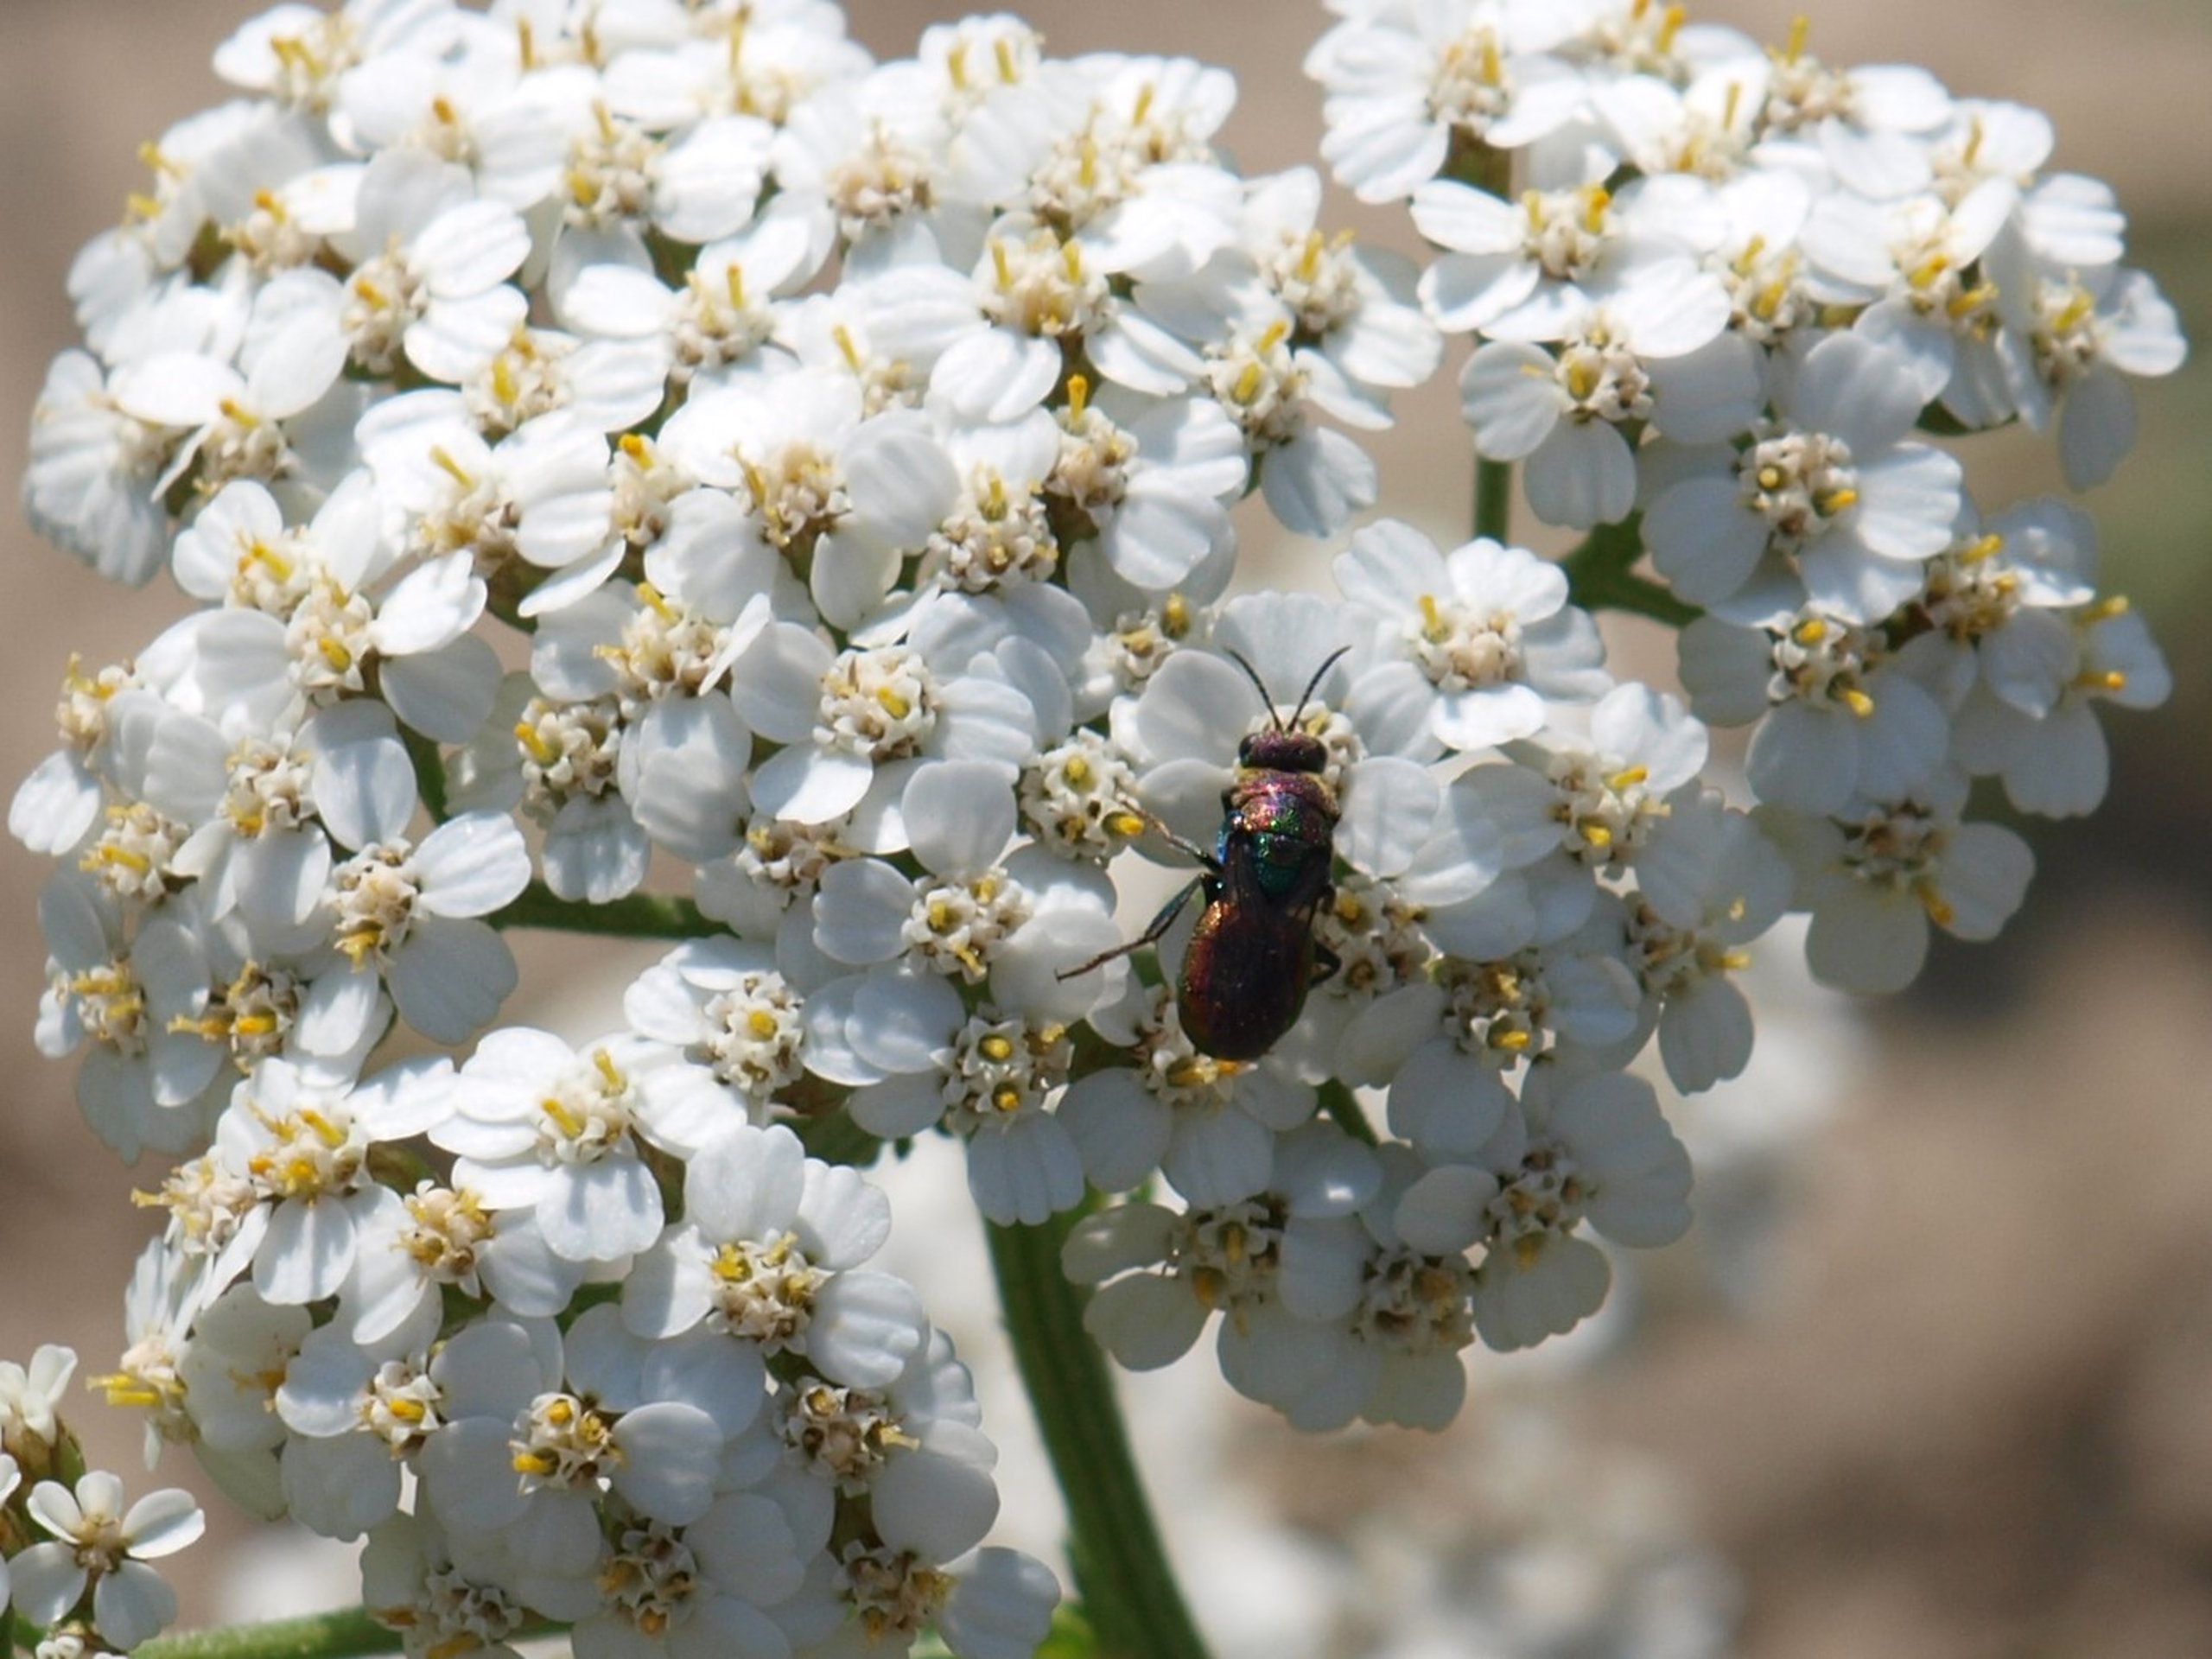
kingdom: Animalia
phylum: Arthropoda
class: Insecta
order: Hymenoptera
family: Chrysididae
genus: Hedychrum
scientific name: Hedychrum rutilans
